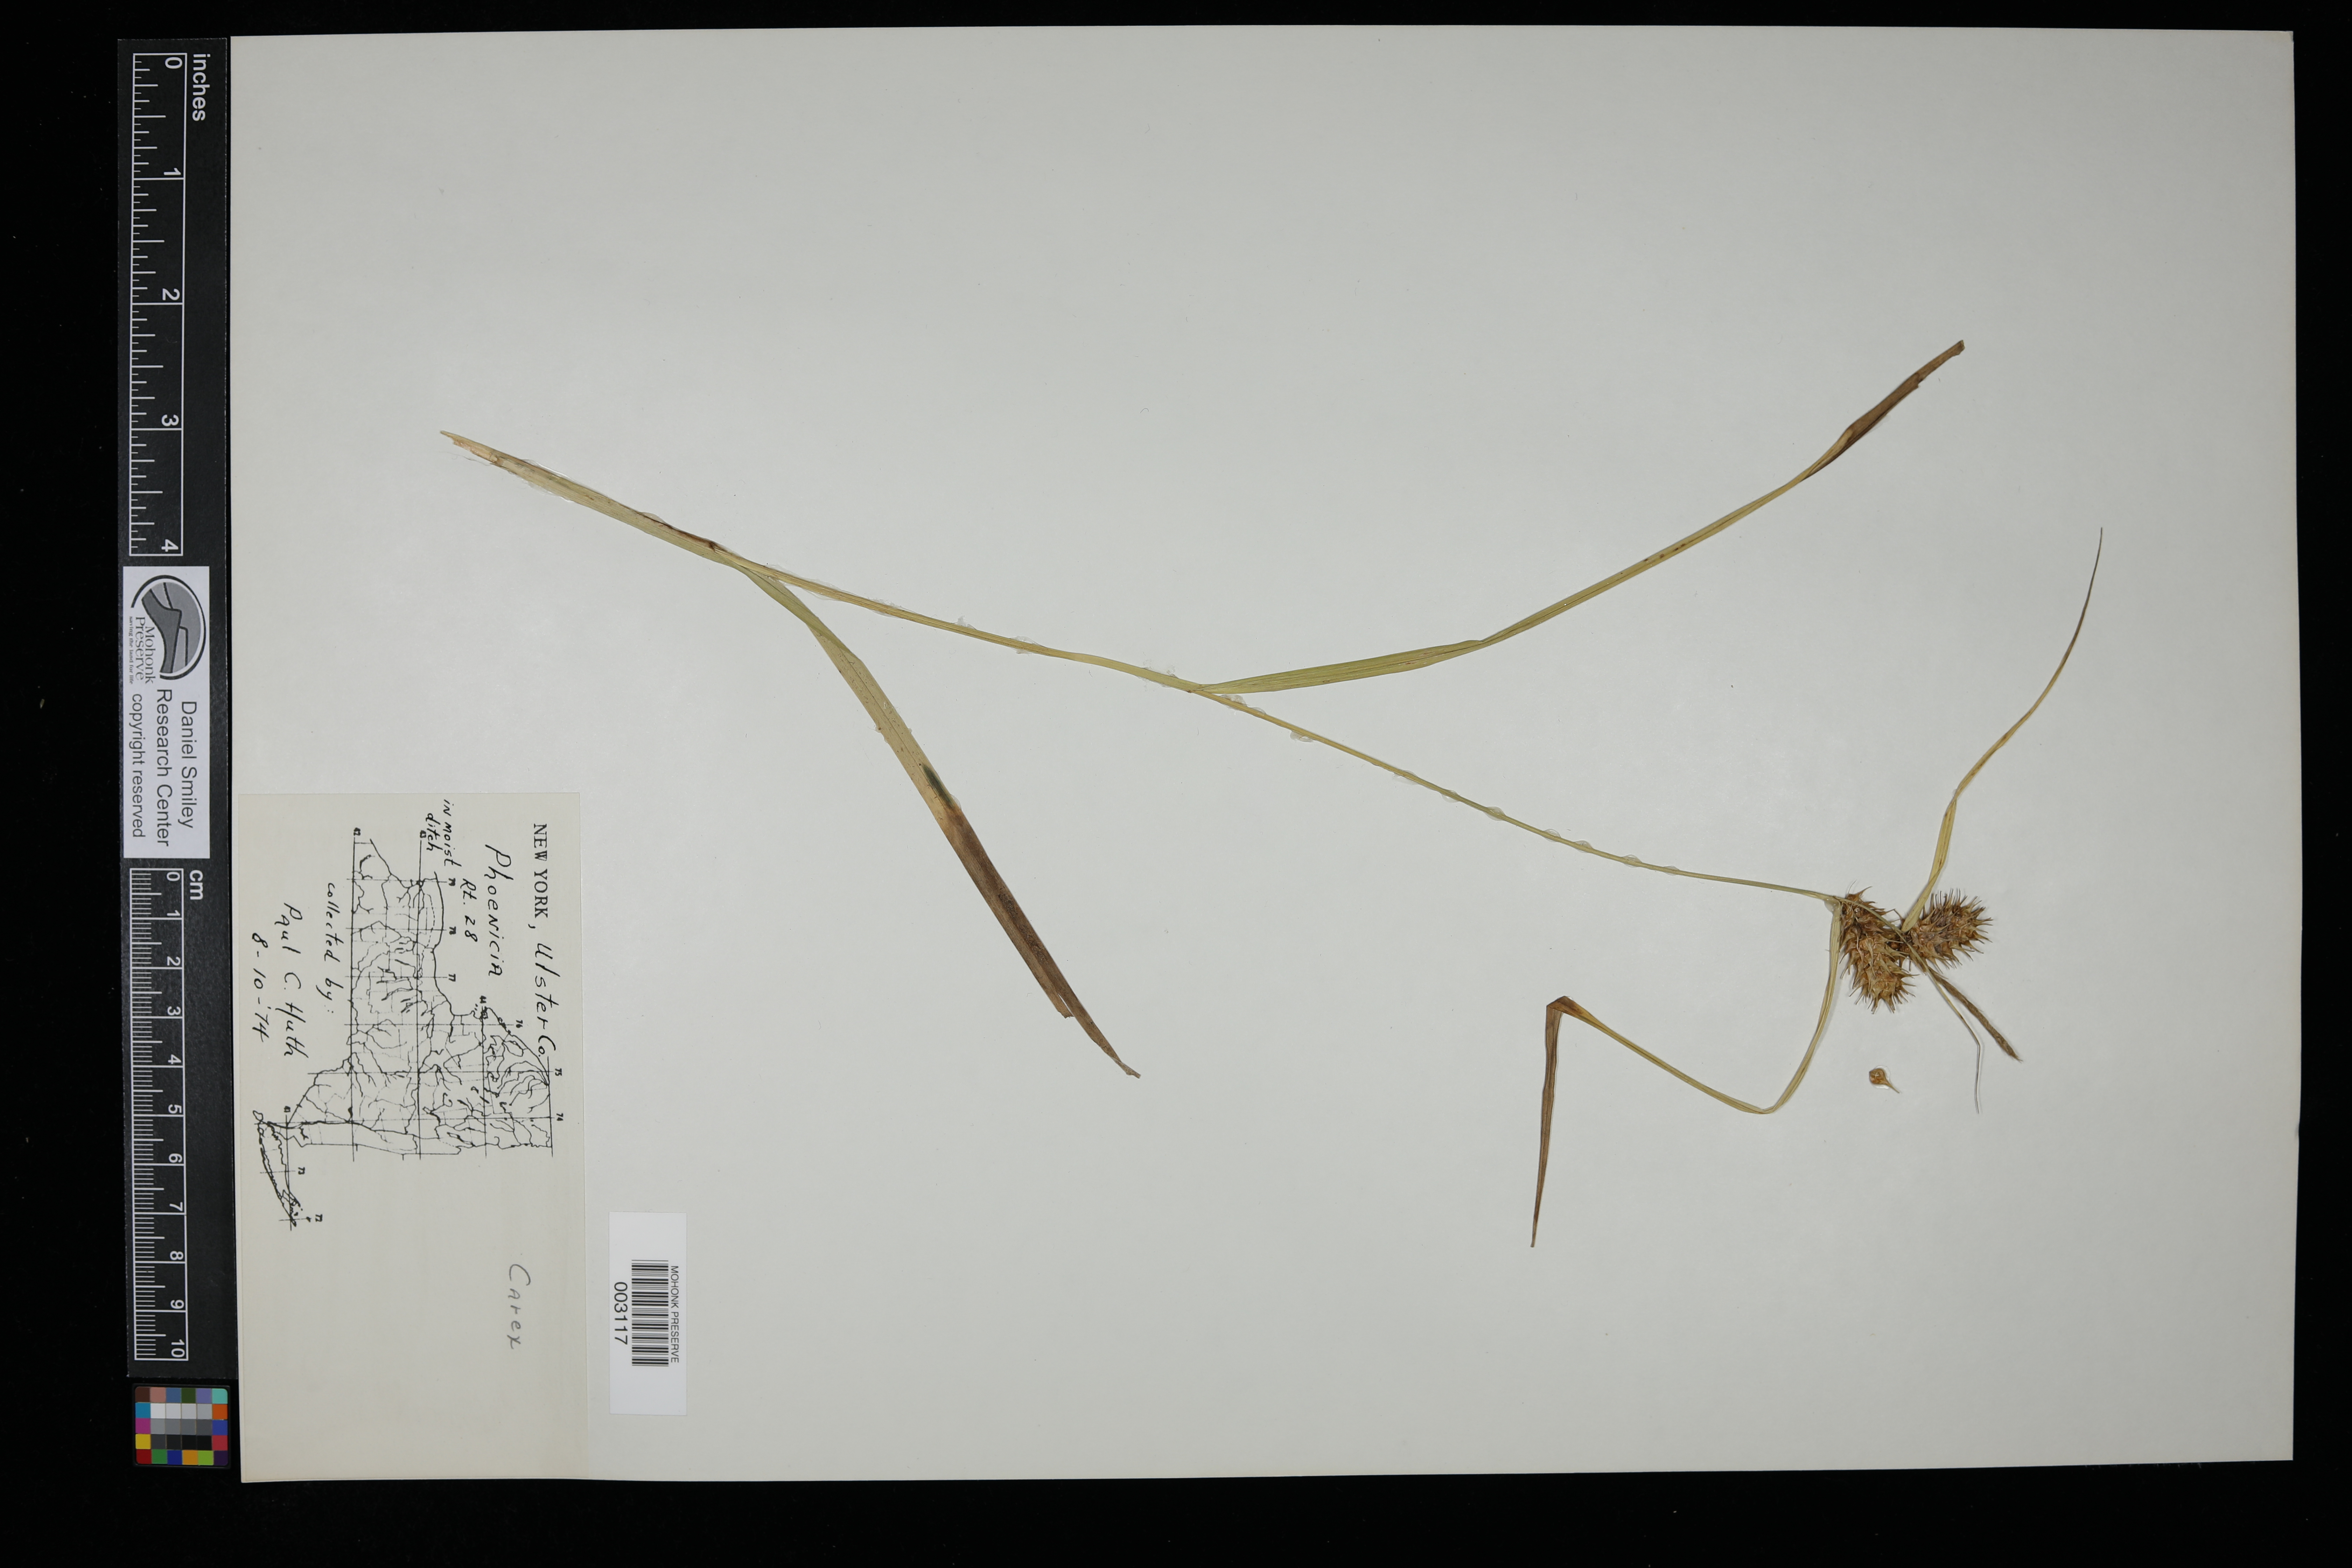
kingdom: Plantae
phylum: Tracheophyta
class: Liliopsida
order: Poales
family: Cyperaceae
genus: Carex
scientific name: Carex
